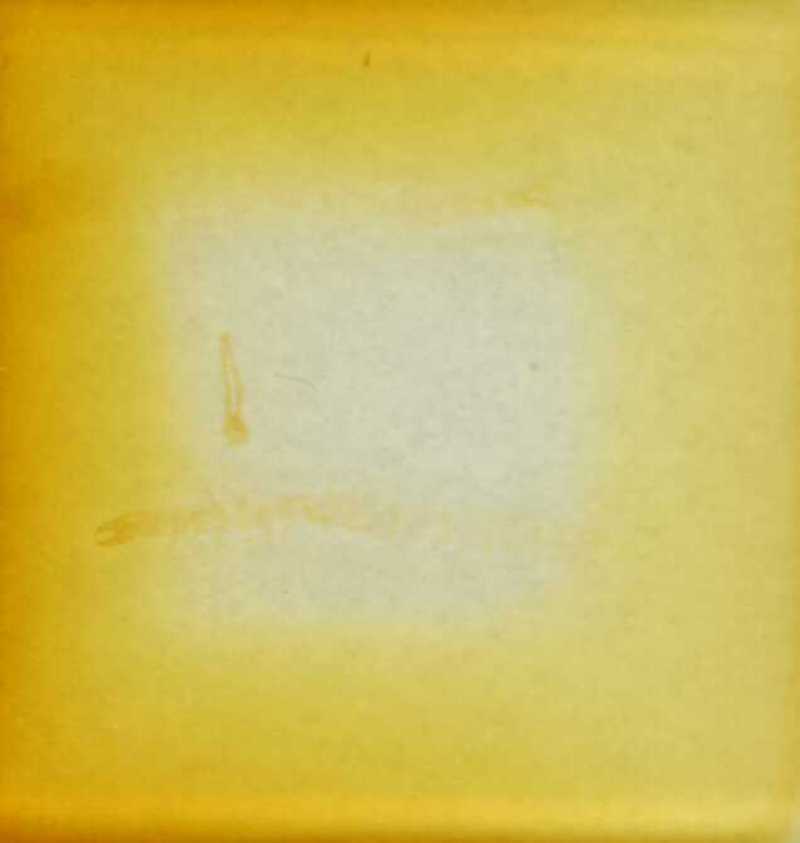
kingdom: Animalia
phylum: Arthropoda
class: Chilopoda
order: Geophilomorpha
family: Schendylidae
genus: Schendyla
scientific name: Schendyla carniolensis
